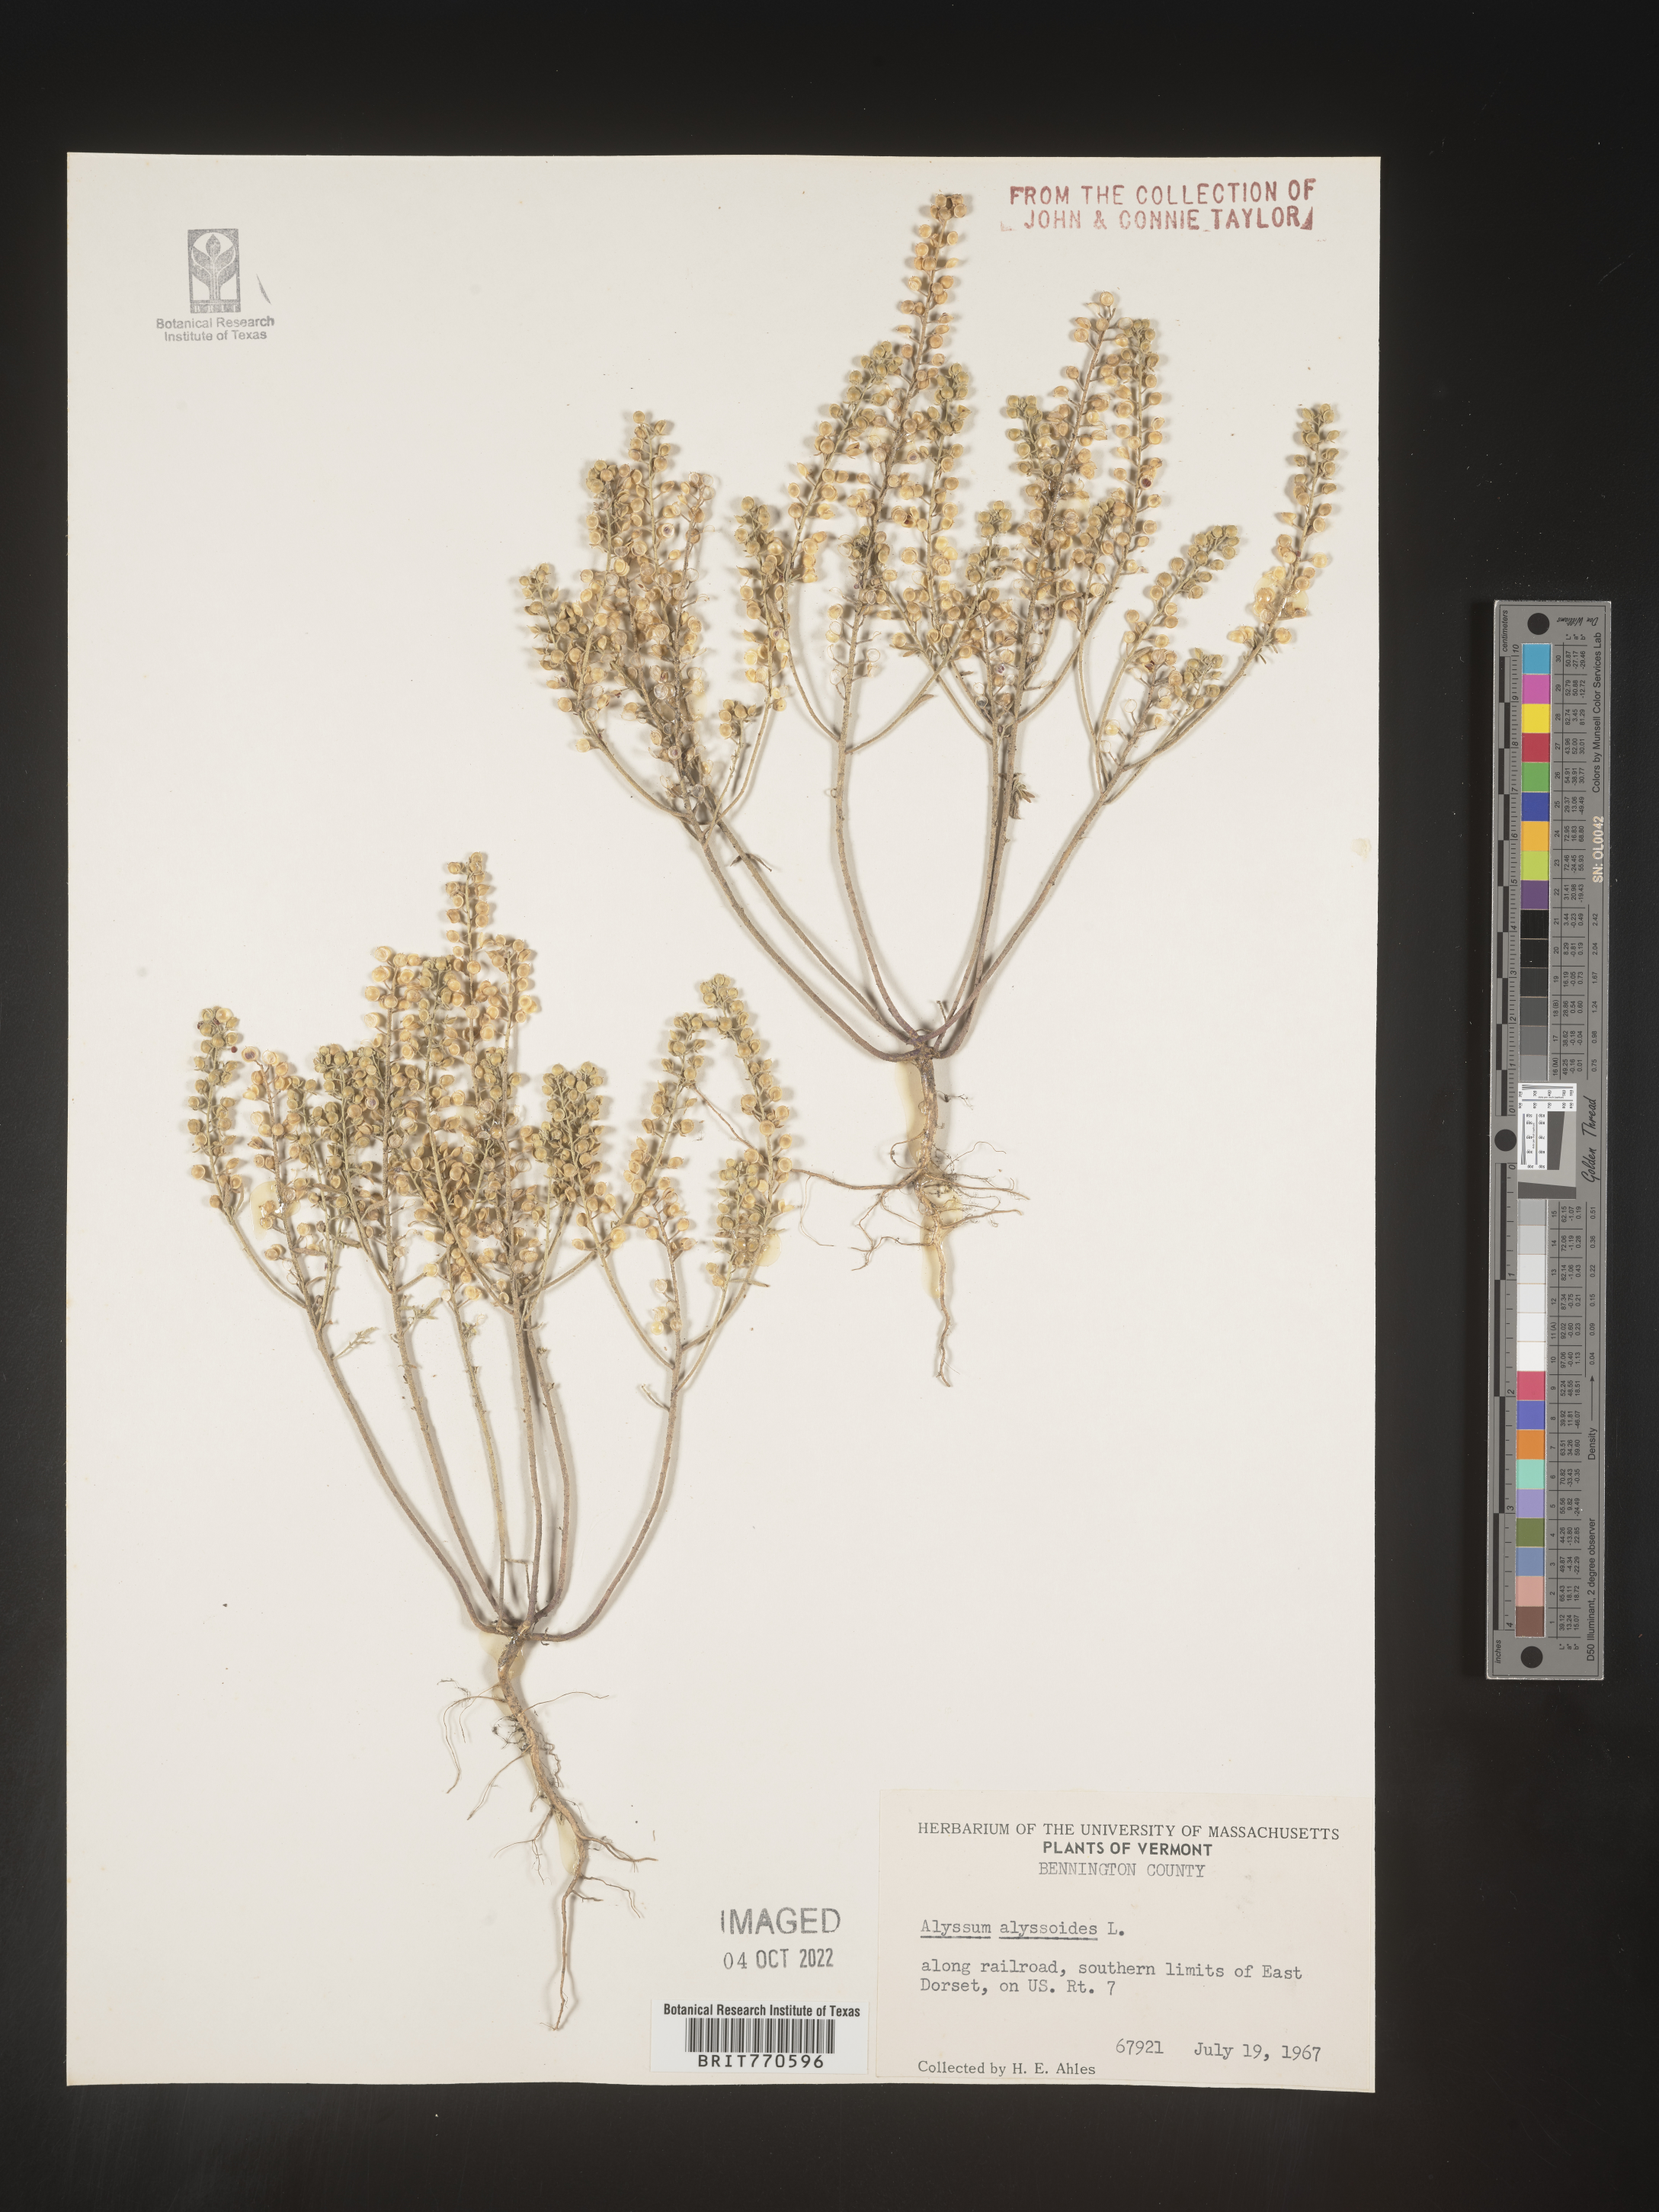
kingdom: Plantae
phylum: Tracheophyta
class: Magnoliopsida
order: Brassicales
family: Brassicaceae
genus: Alyssum
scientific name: Alyssum alyssoides
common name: Small alison
